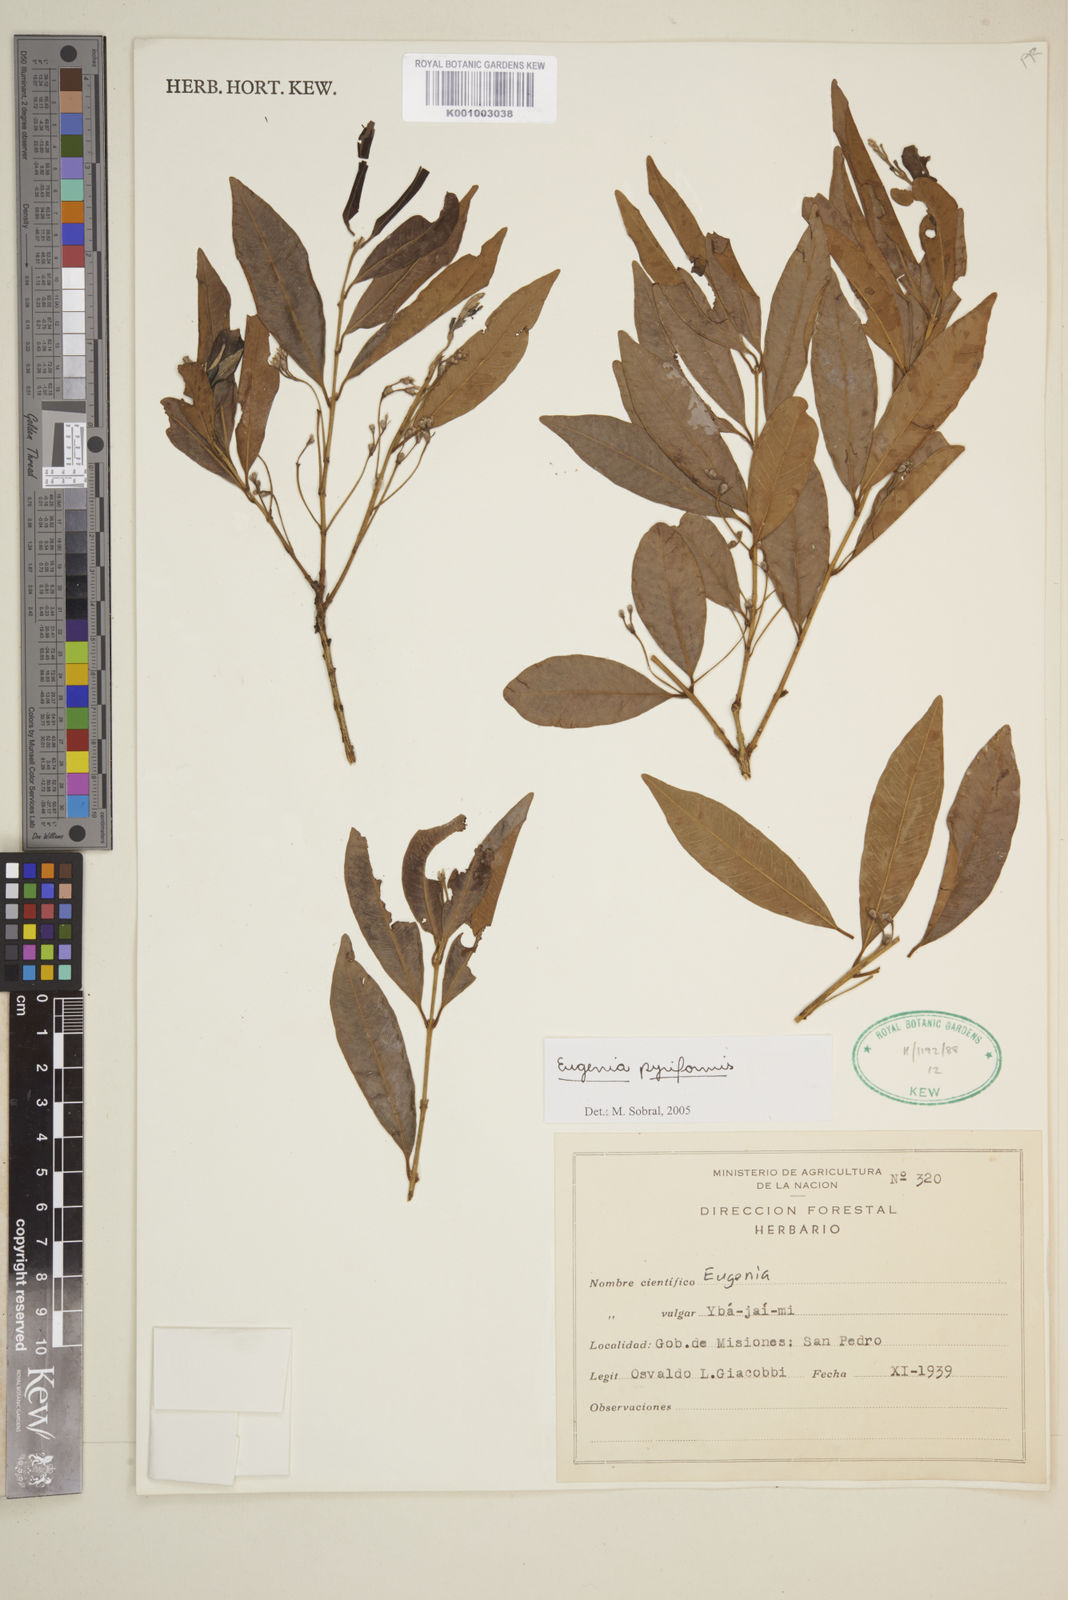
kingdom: Plantae
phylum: Tracheophyta
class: Magnoliopsida
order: Myrtales
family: Myrtaceae
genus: Eugenia
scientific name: Eugenia pyriformis
